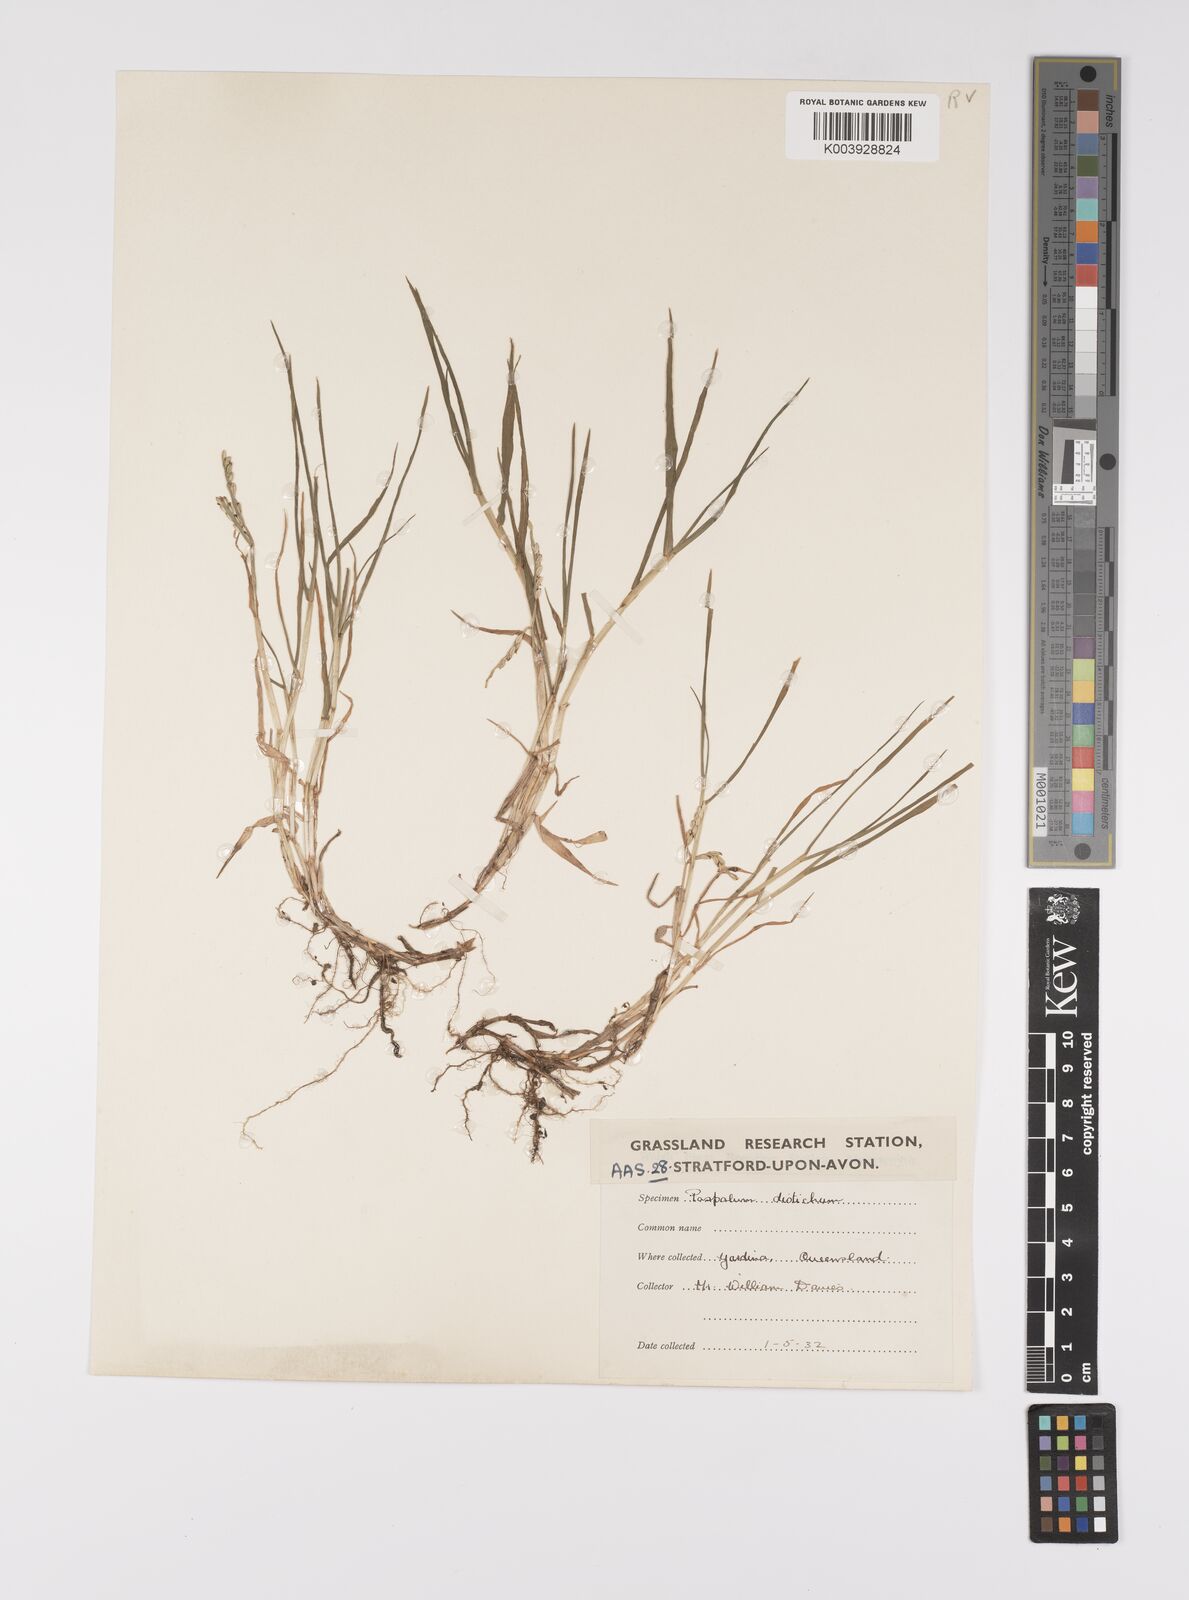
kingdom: Plantae
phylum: Tracheophyta
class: Liliopsida
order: Poales
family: Poaceae
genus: Paspalum
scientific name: Paspalum distichum
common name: Knotgrass
